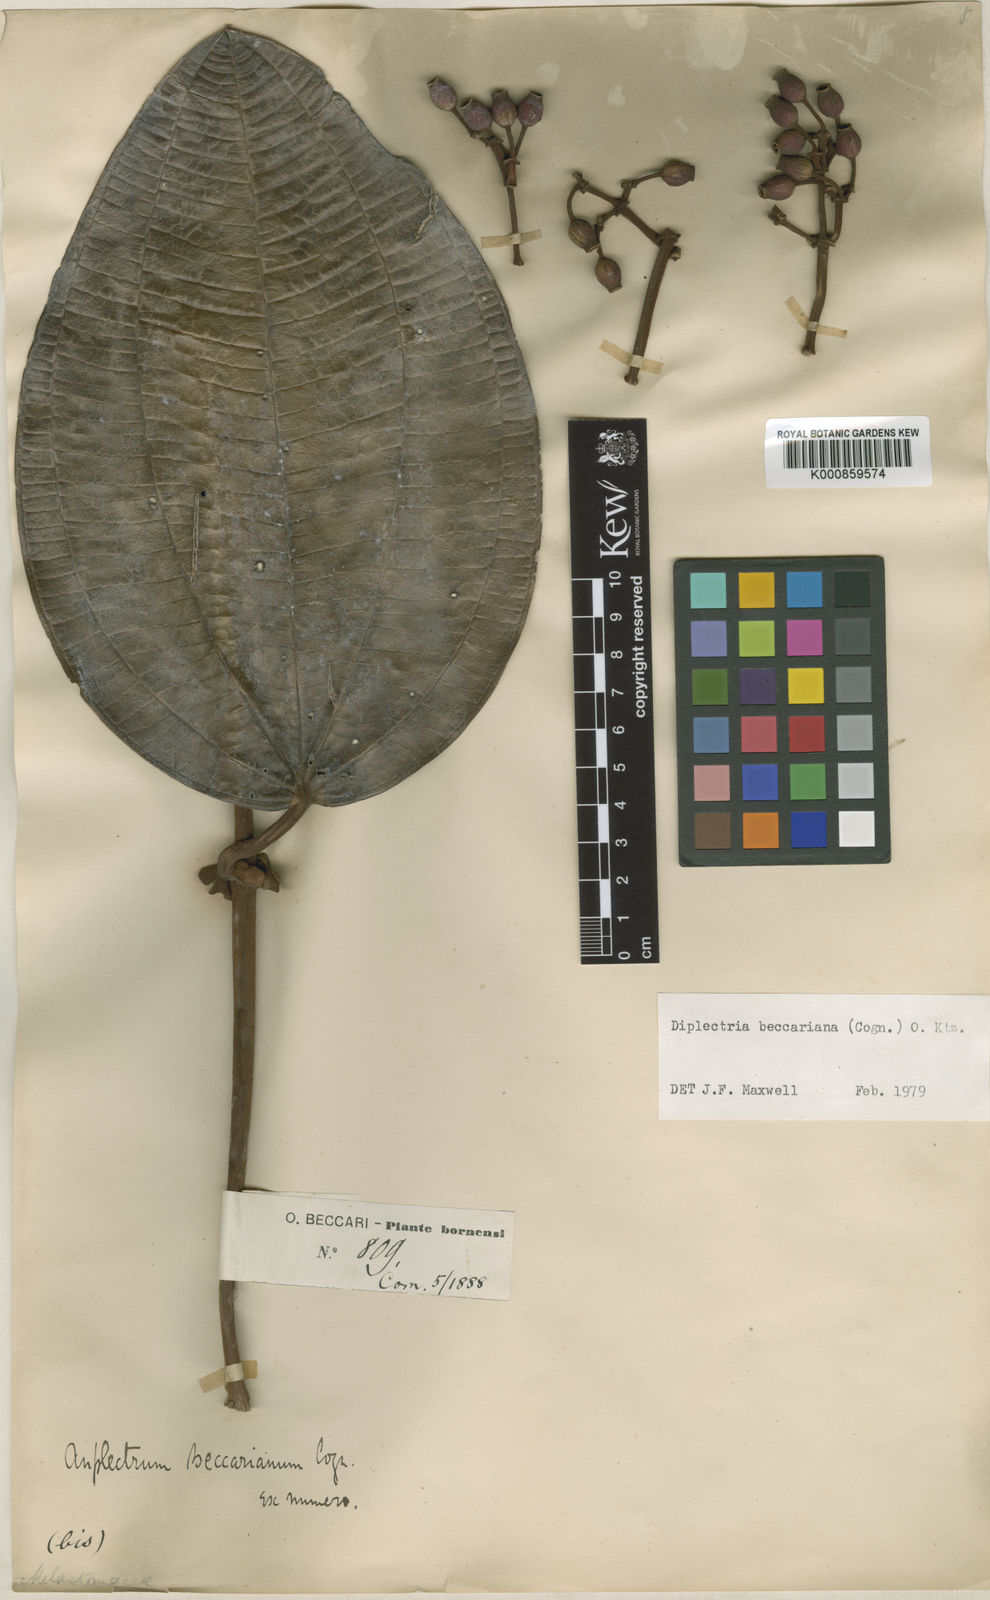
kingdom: Plantae
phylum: Tracheophyta
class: Magnoliopsida
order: Myrtales
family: Melastomataceae
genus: Dalenia
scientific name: Dalenia beccariana
